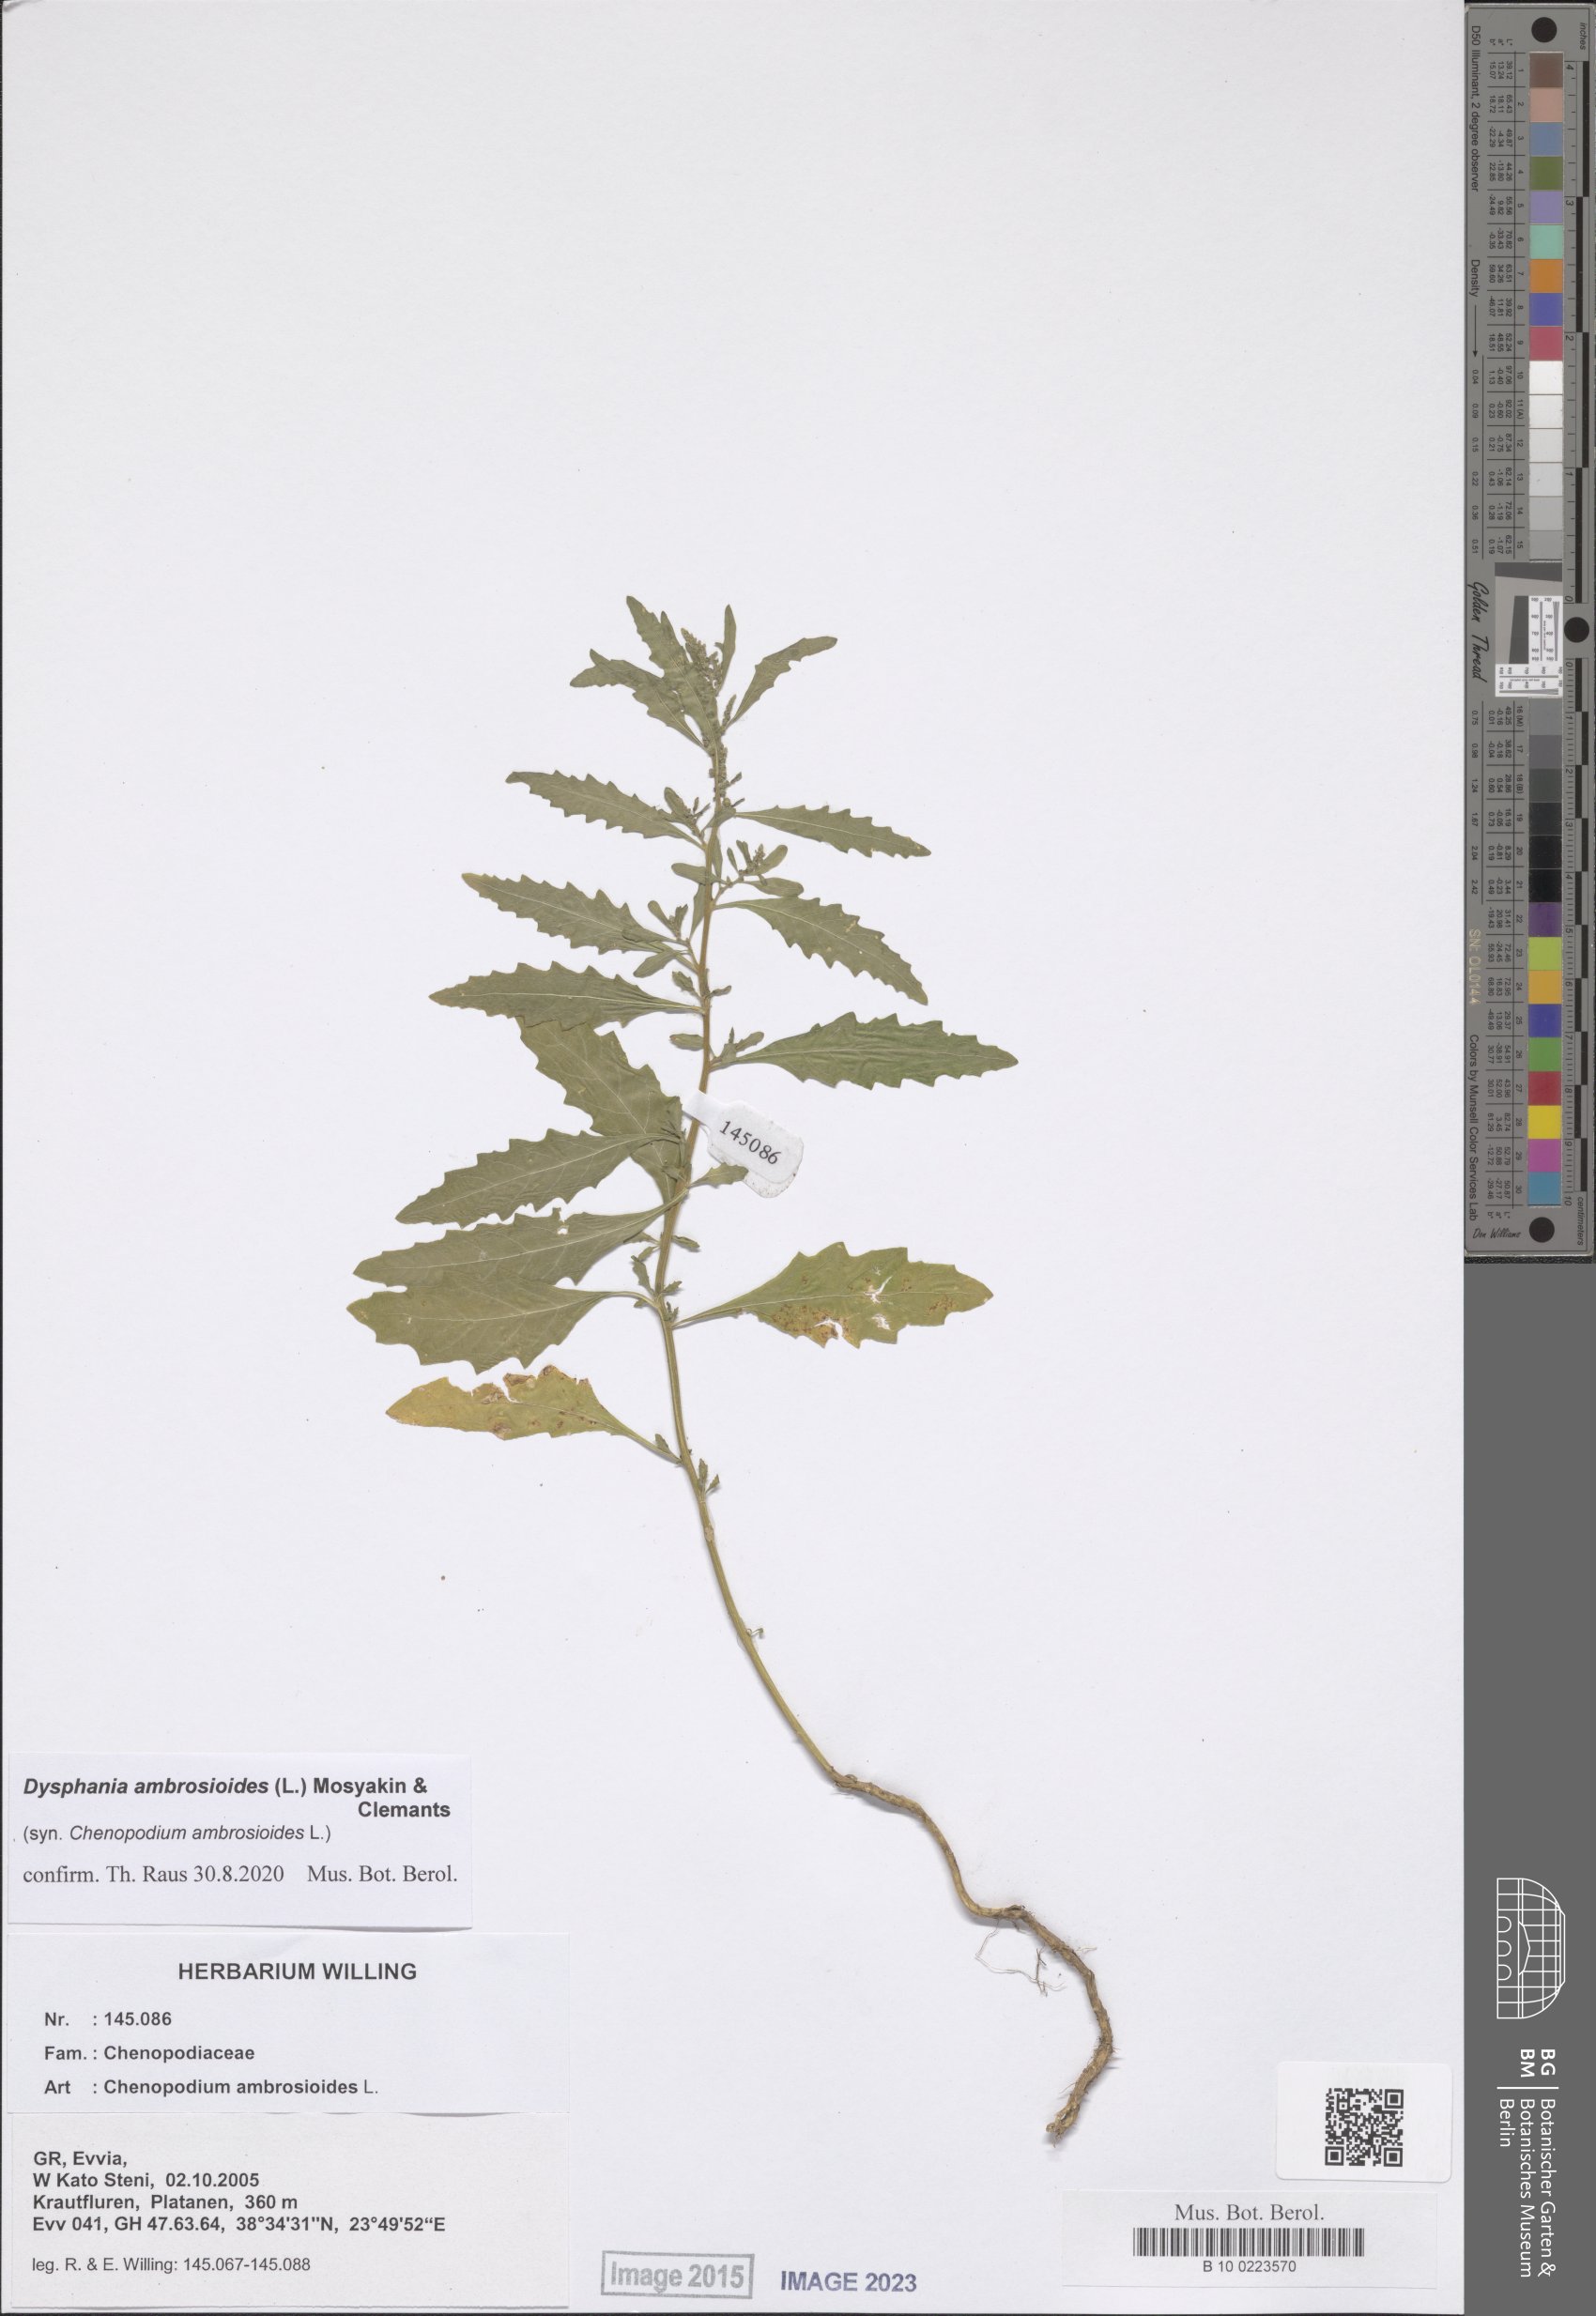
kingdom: Plantae
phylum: Tracheophyta
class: Magnoliopsida
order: Caryophyllales
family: Amaranthaceae
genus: Dysphania
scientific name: Dysphania ambrosioides
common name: Wormseed
